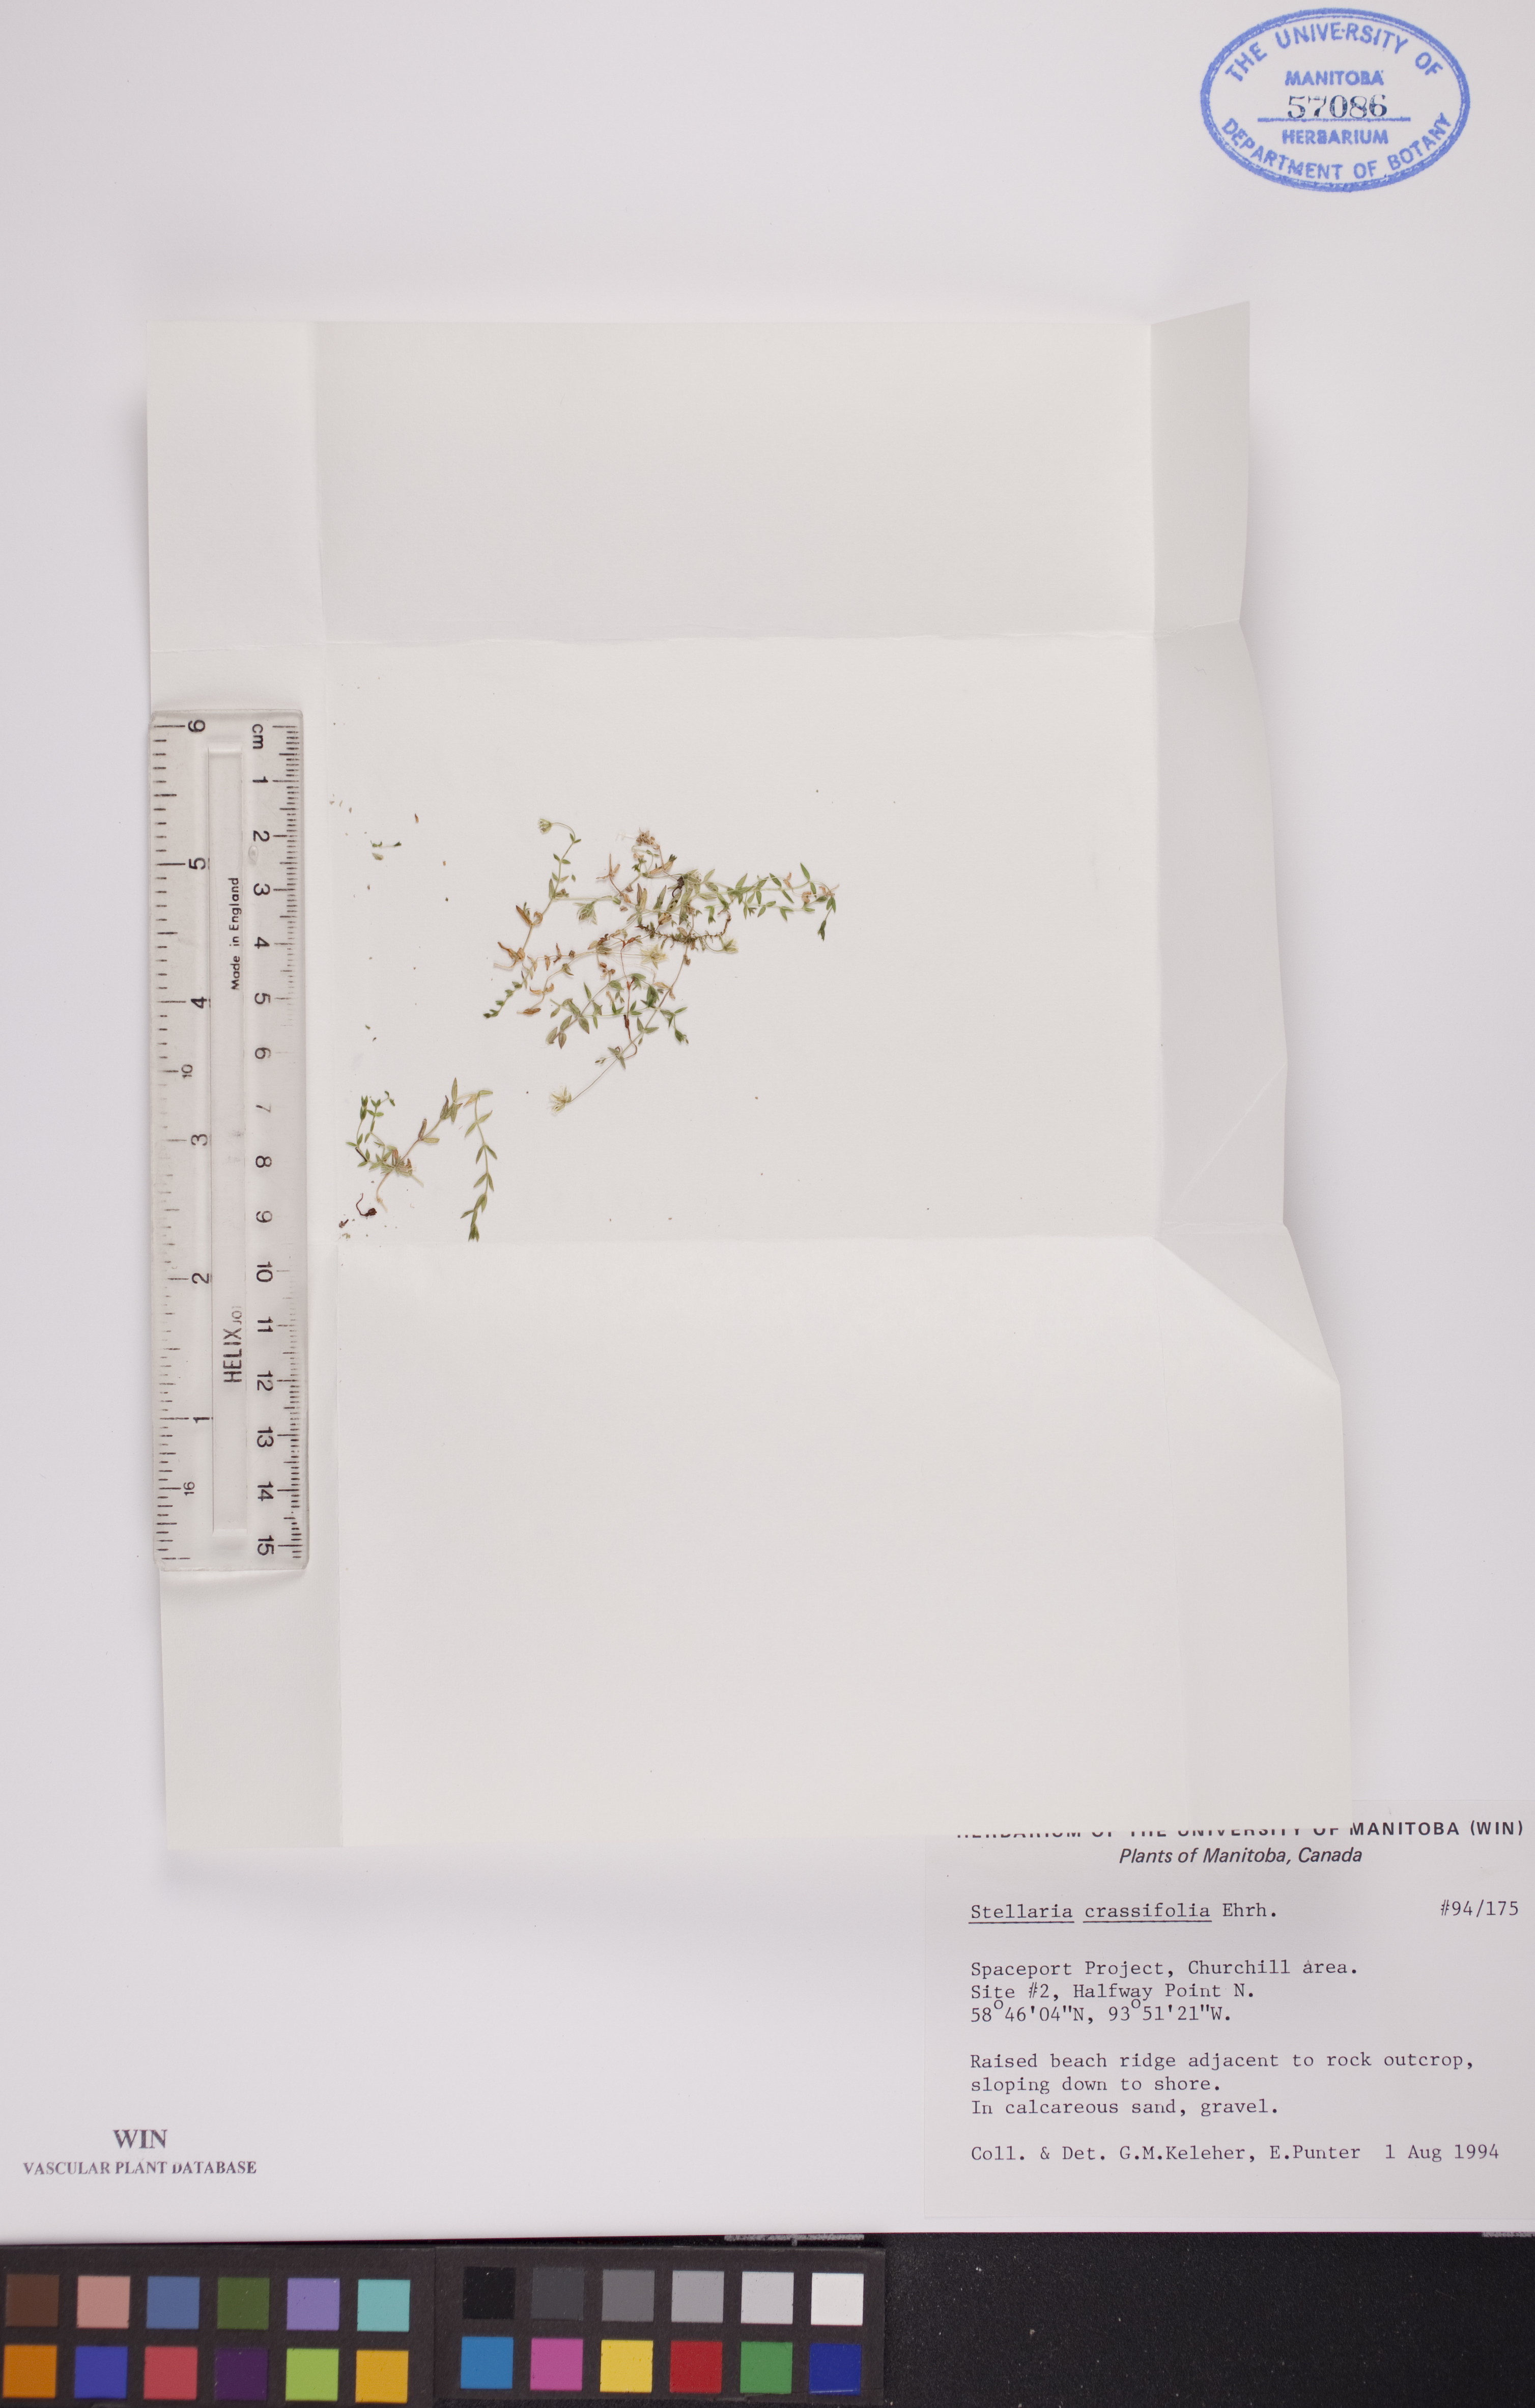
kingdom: Plantae
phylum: Tracheophyta
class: Magnoliopsida
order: Caryophyllales
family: Caryophyllaceae
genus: Stellaria
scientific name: Stellaria crassifolia
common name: Fleshy starwort
